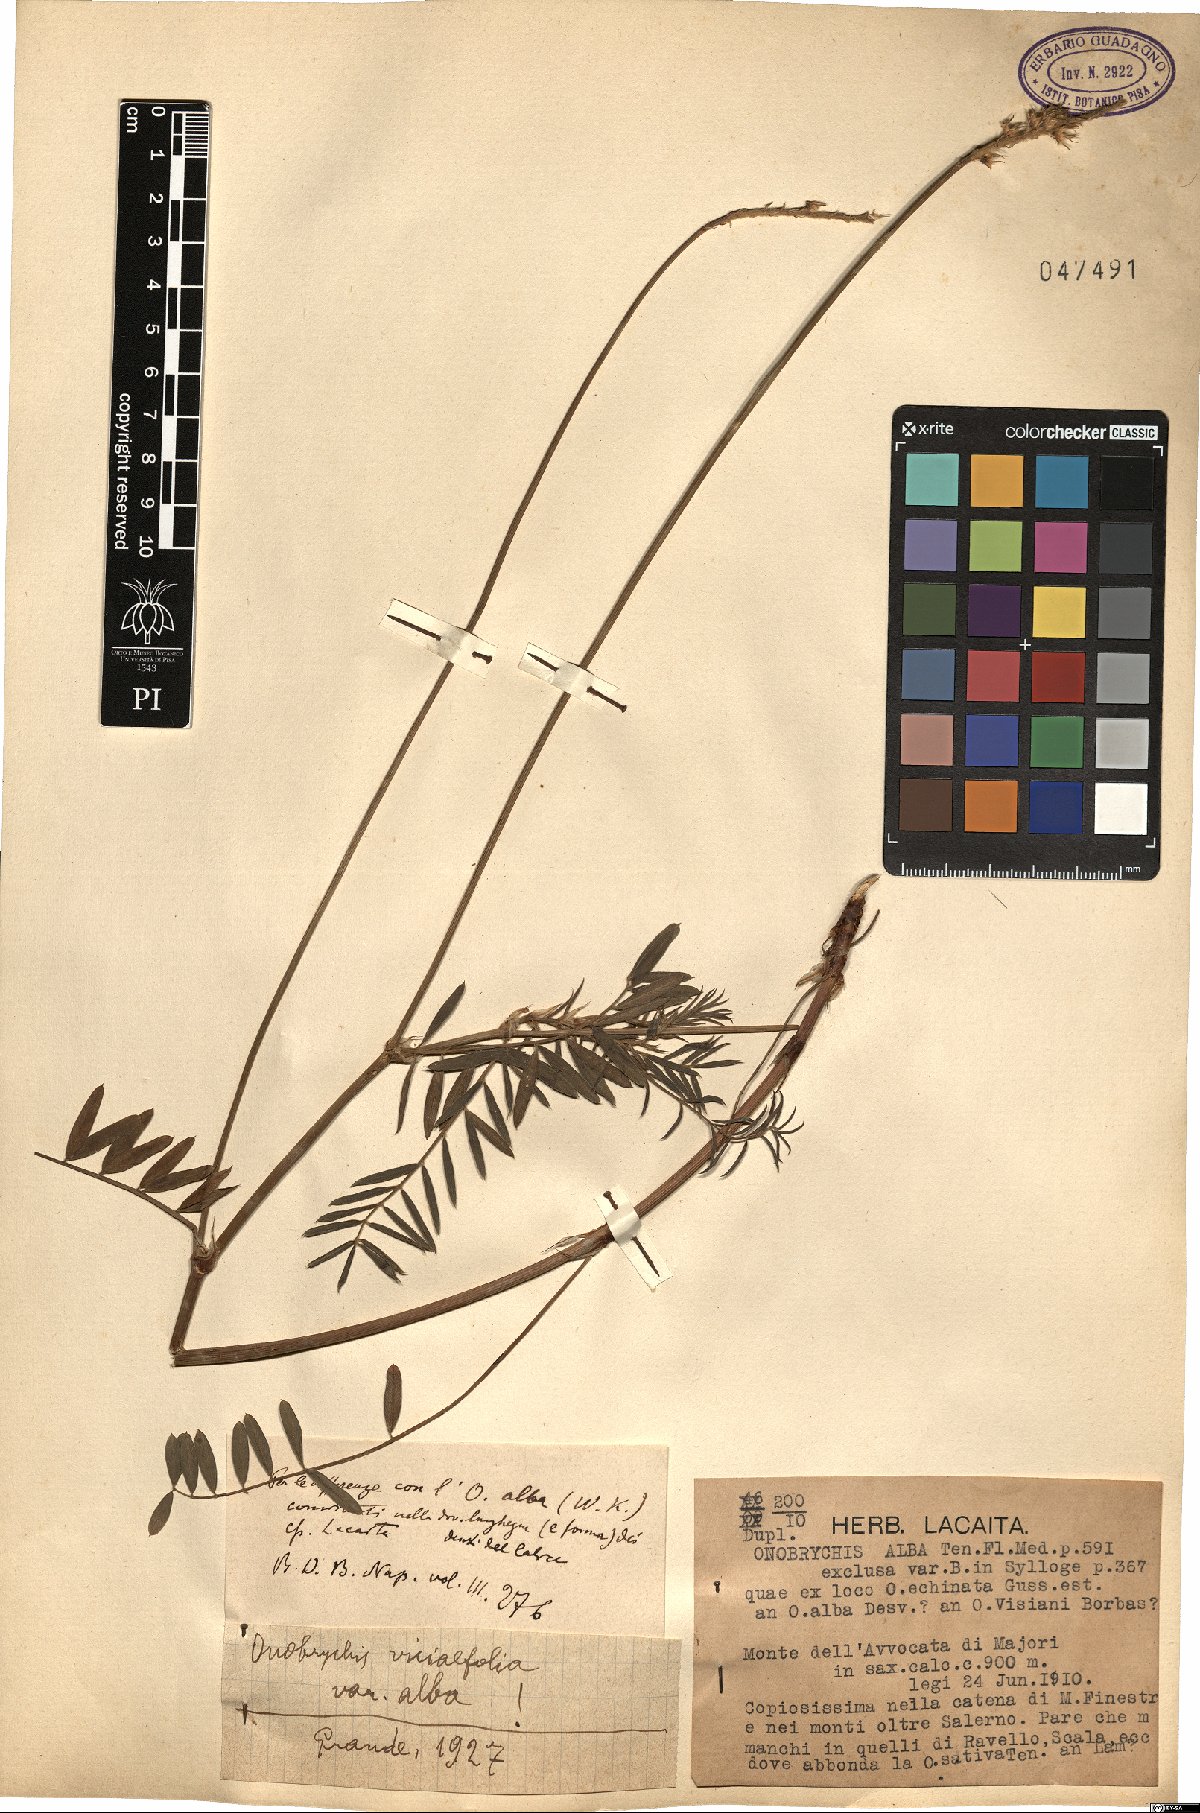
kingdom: Plantae
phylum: Tracheophyta
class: Magnoliopsida
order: Fabales
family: Fabaceae
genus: Onobrychis
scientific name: Onobrychis viciifolia
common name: Sainfoin
